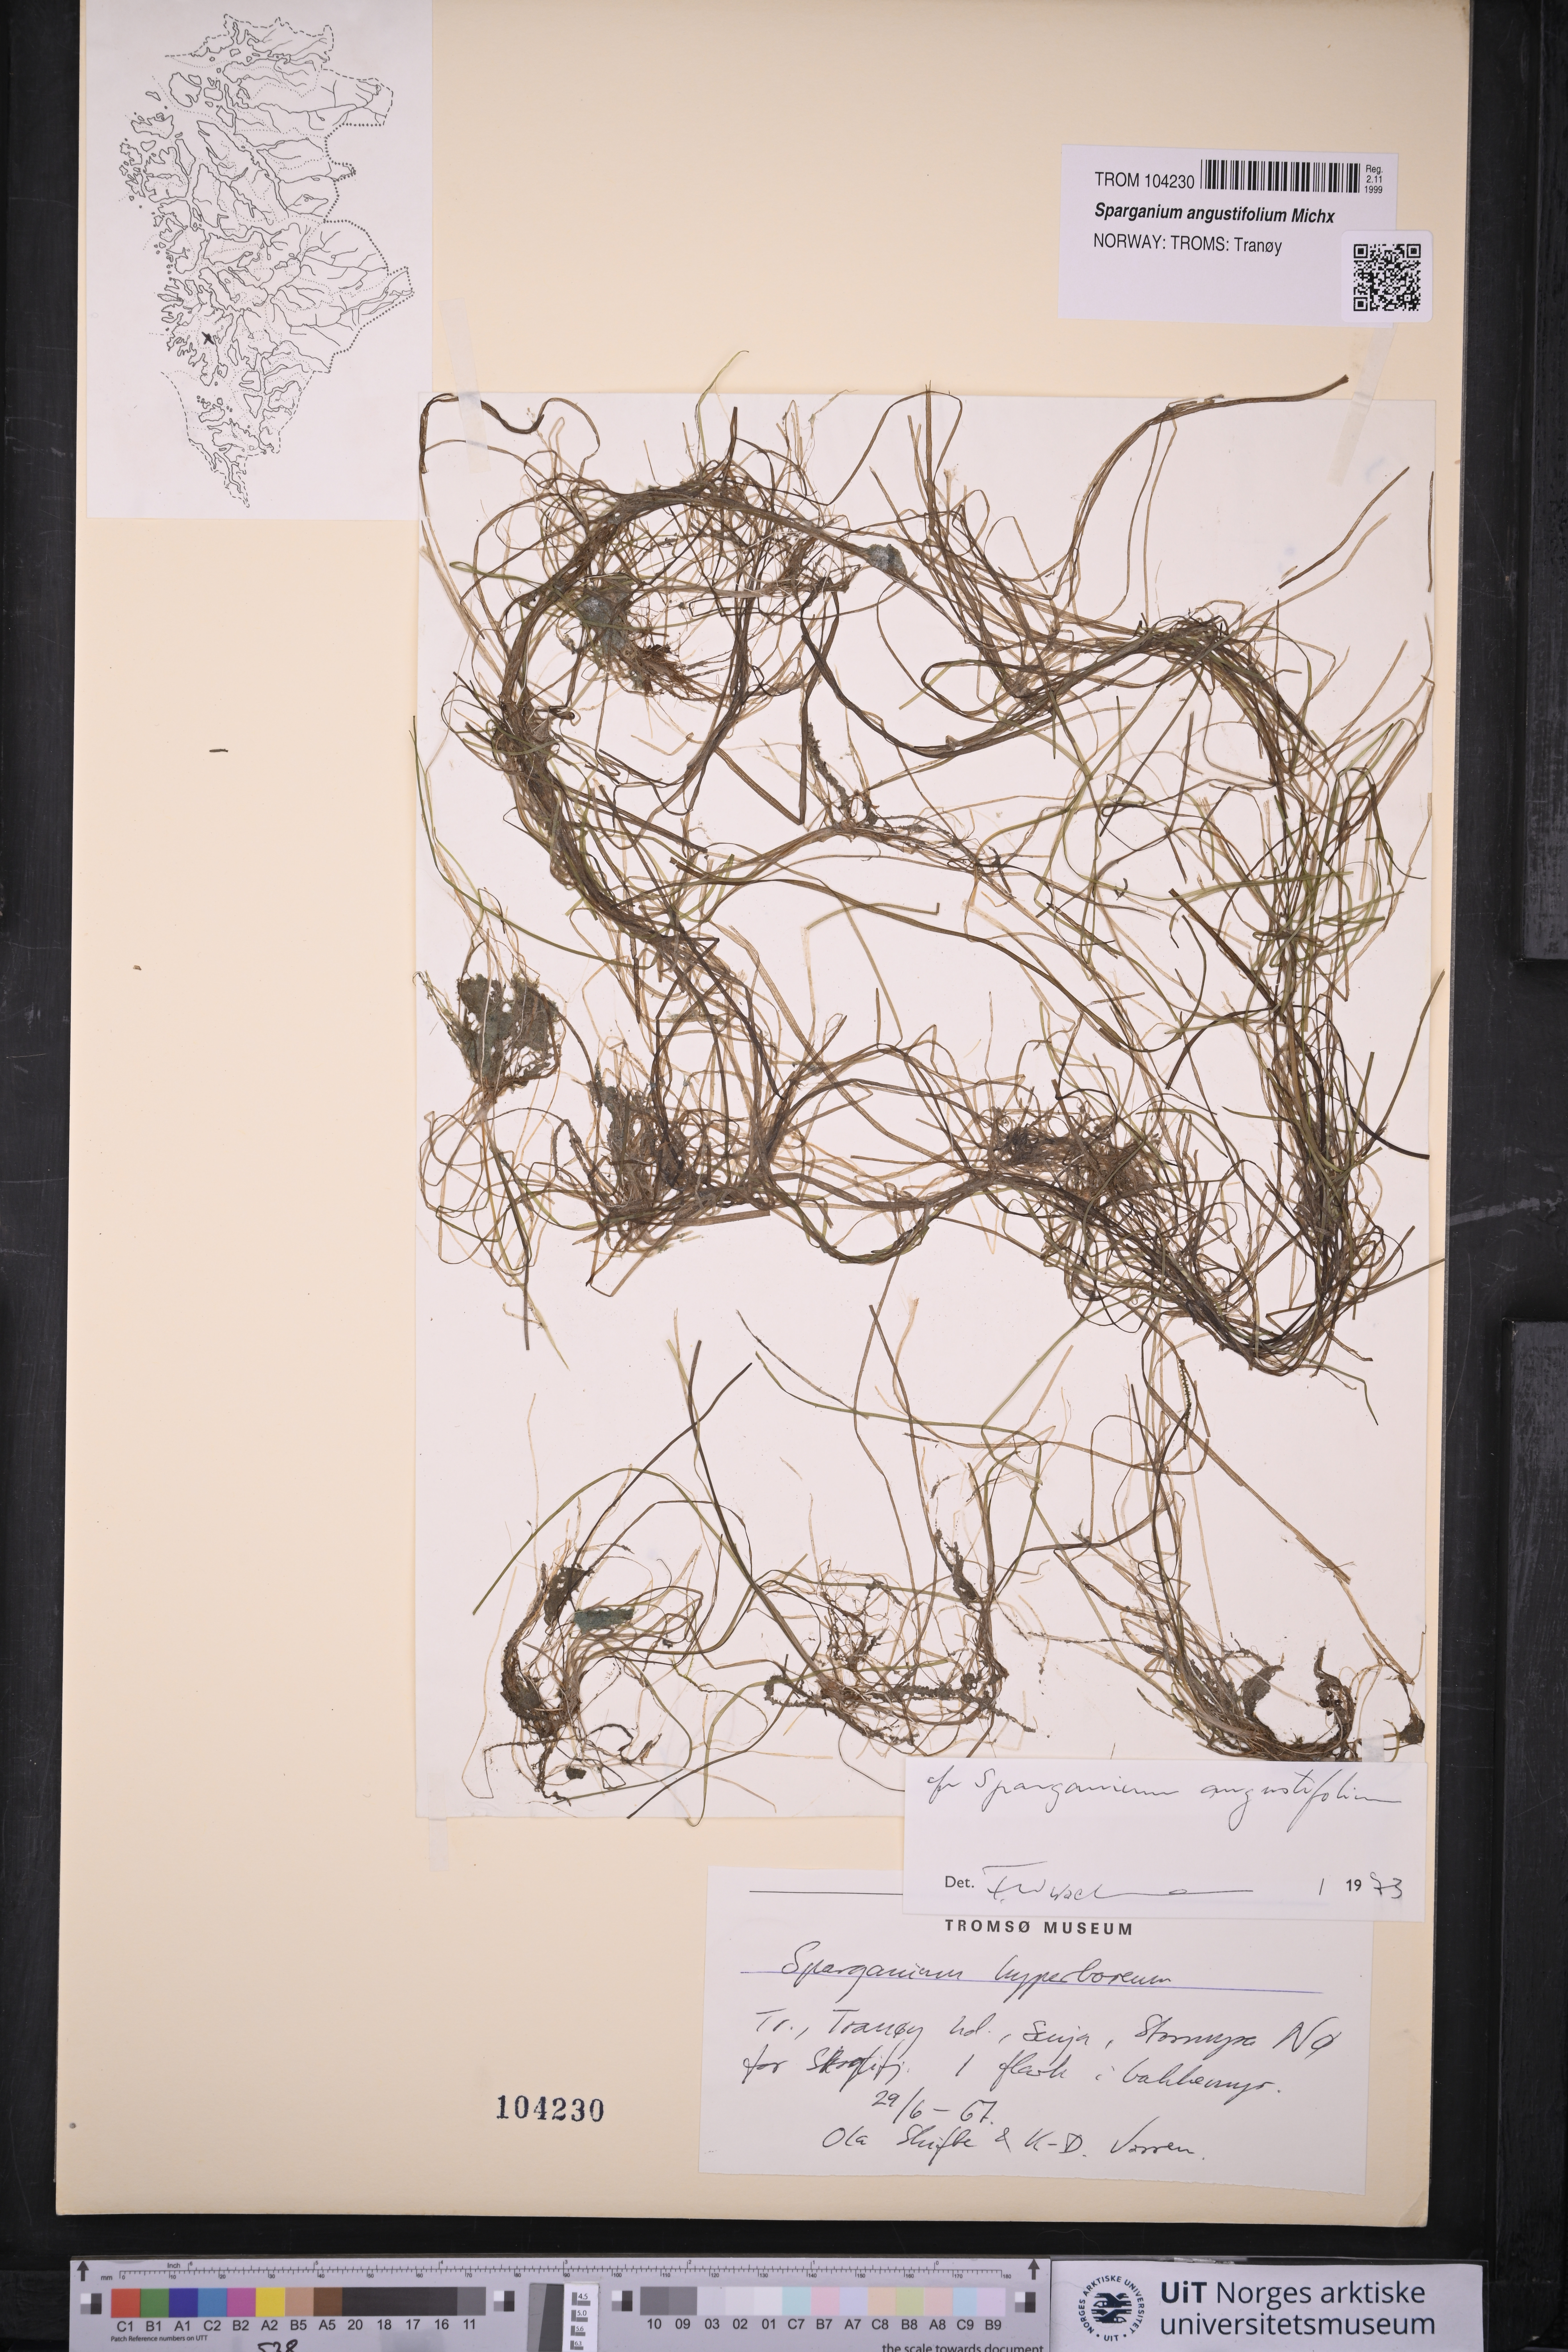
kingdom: Plantae
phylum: Tracheophyta
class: Liliopsida
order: Poales
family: Typhaceae
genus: Sparganium
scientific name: Sparganium angustifolium
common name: Floating bur-reed
